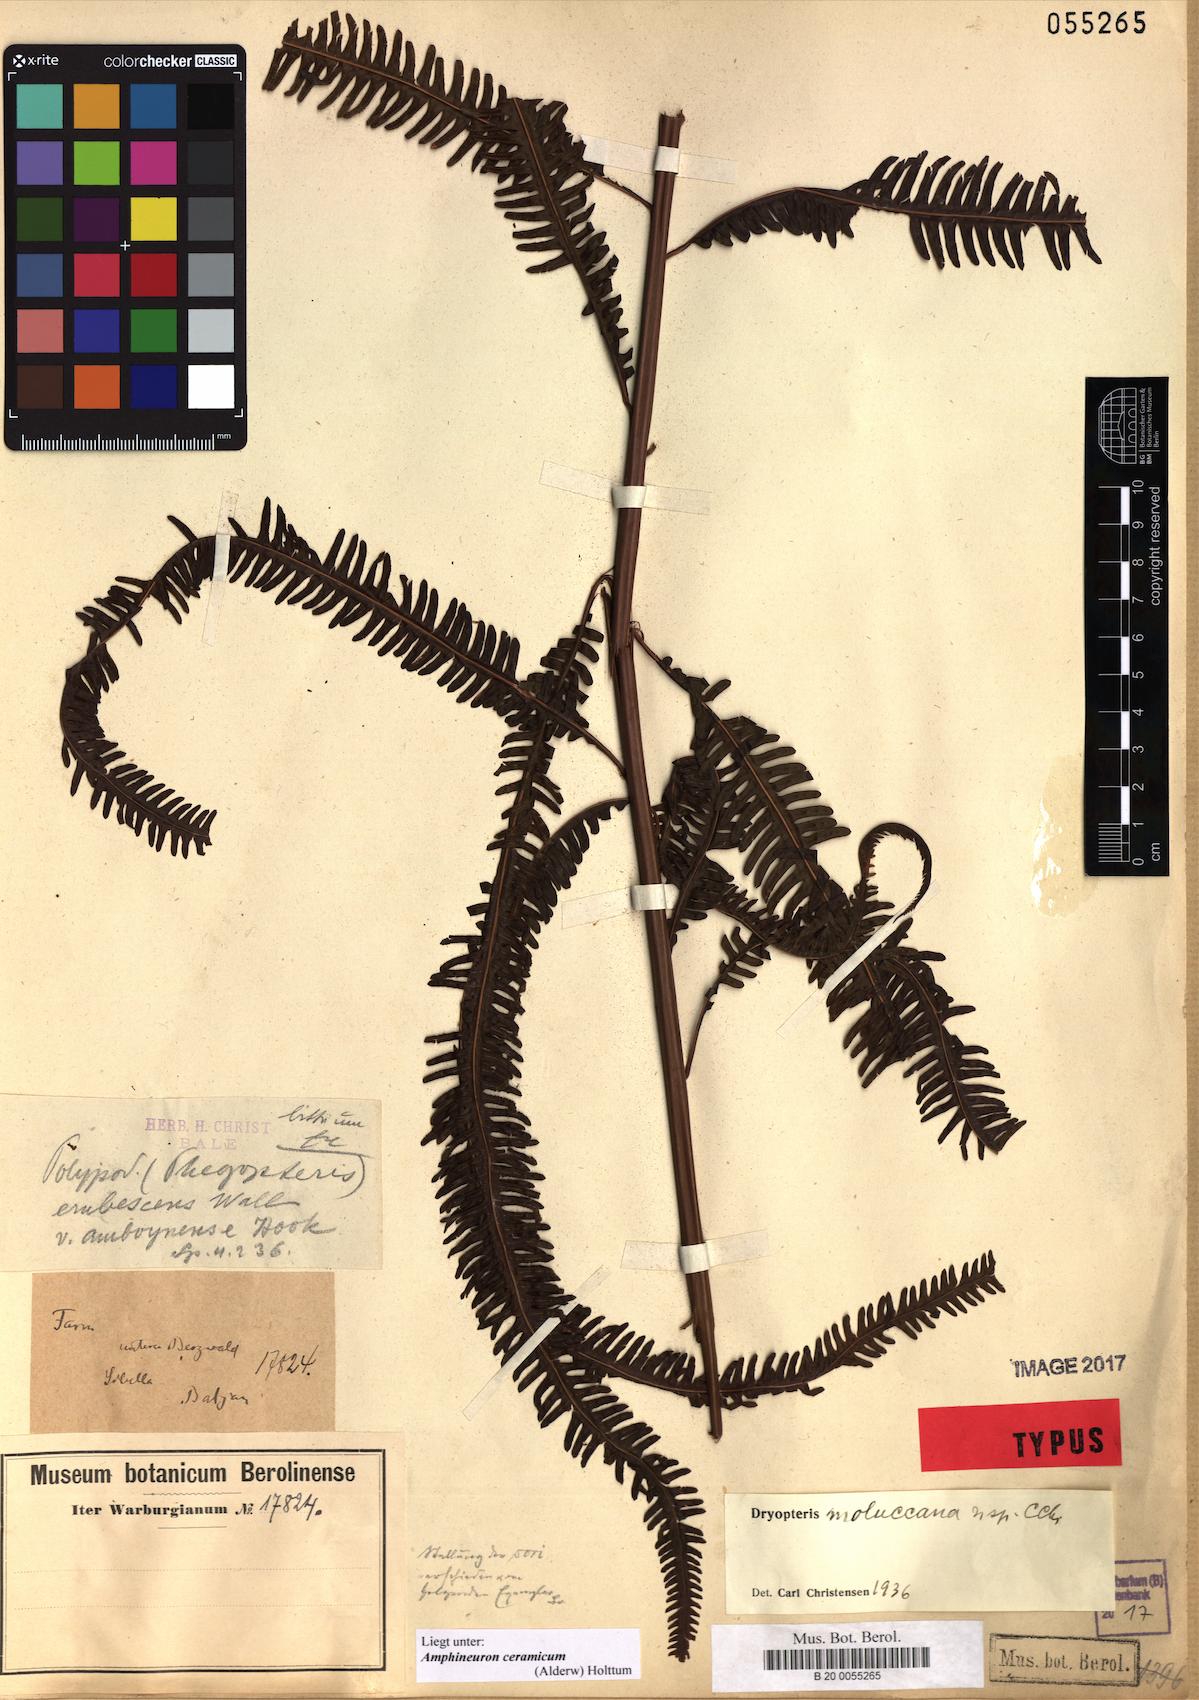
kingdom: Plantae
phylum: Tracheophyta
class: Polypodiopsida
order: Polypodiales
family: Thelypteridaceae
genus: Mesopteris
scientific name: Mesopteris ceramica
